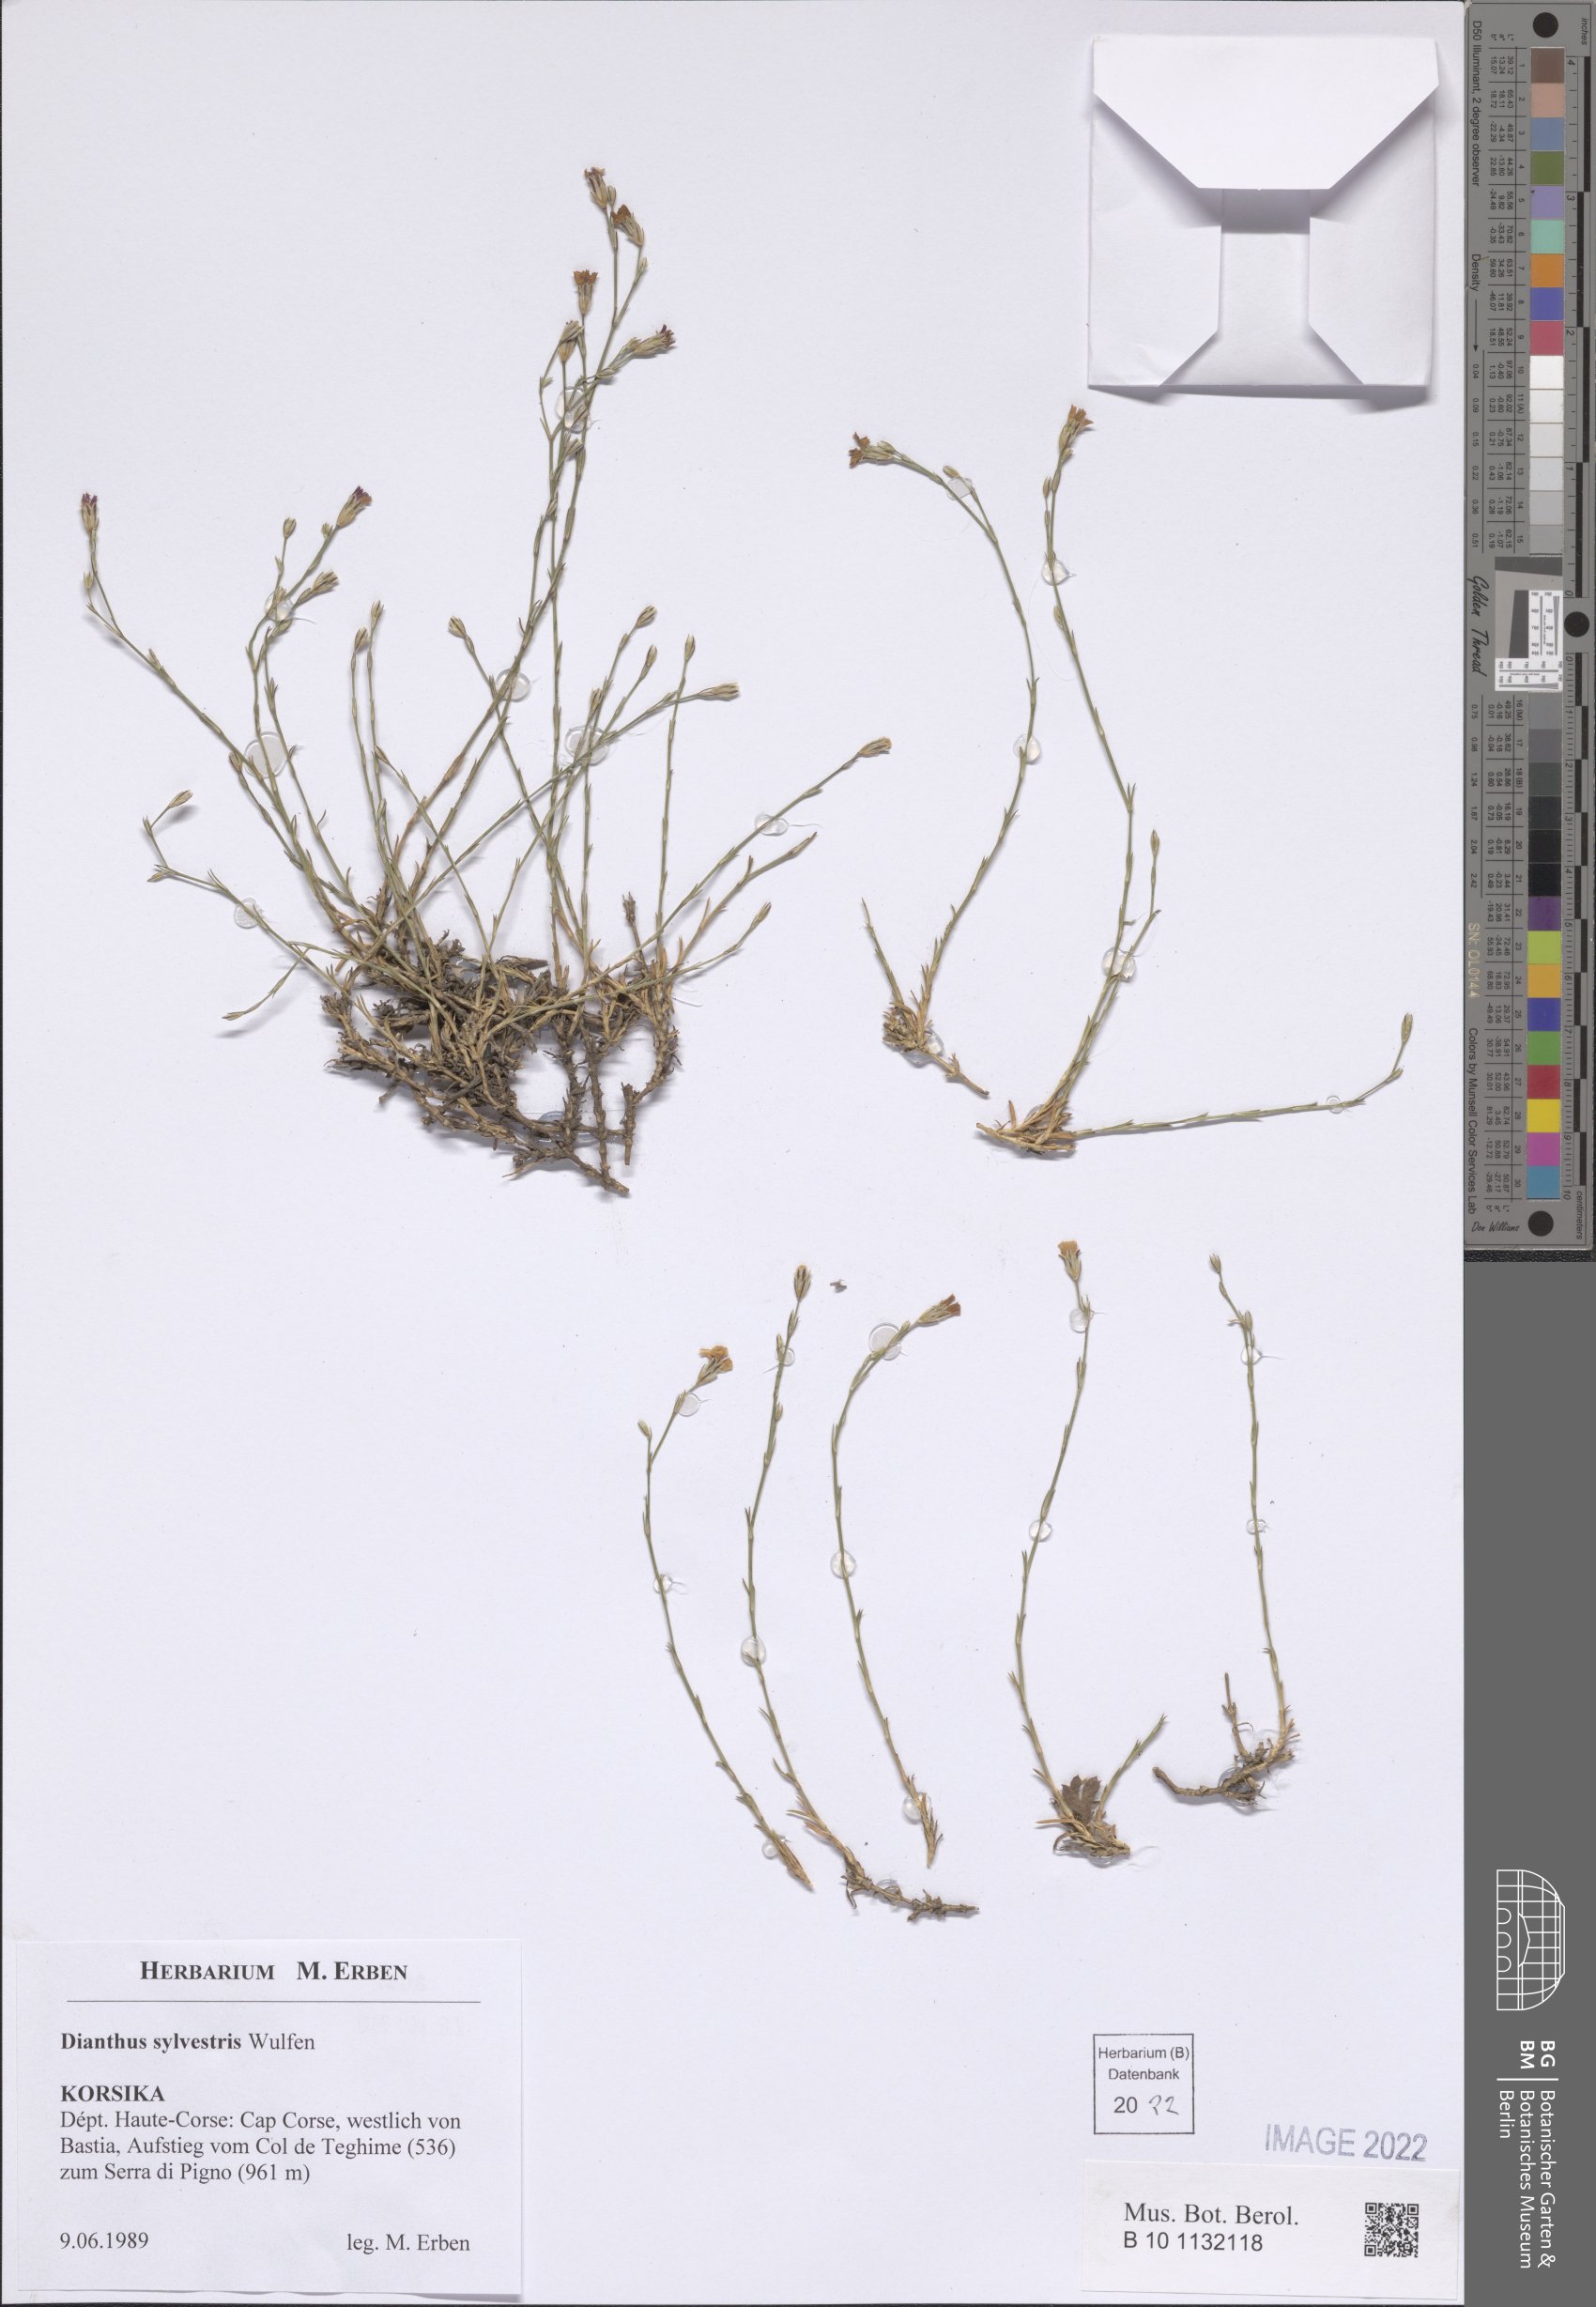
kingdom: Plantae
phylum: Tracheophyta
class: Magnoliopsida
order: Caryophyllales
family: Caryophyllaceae
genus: Dianthus
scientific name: Dianthus sylvestris
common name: Wood pink
